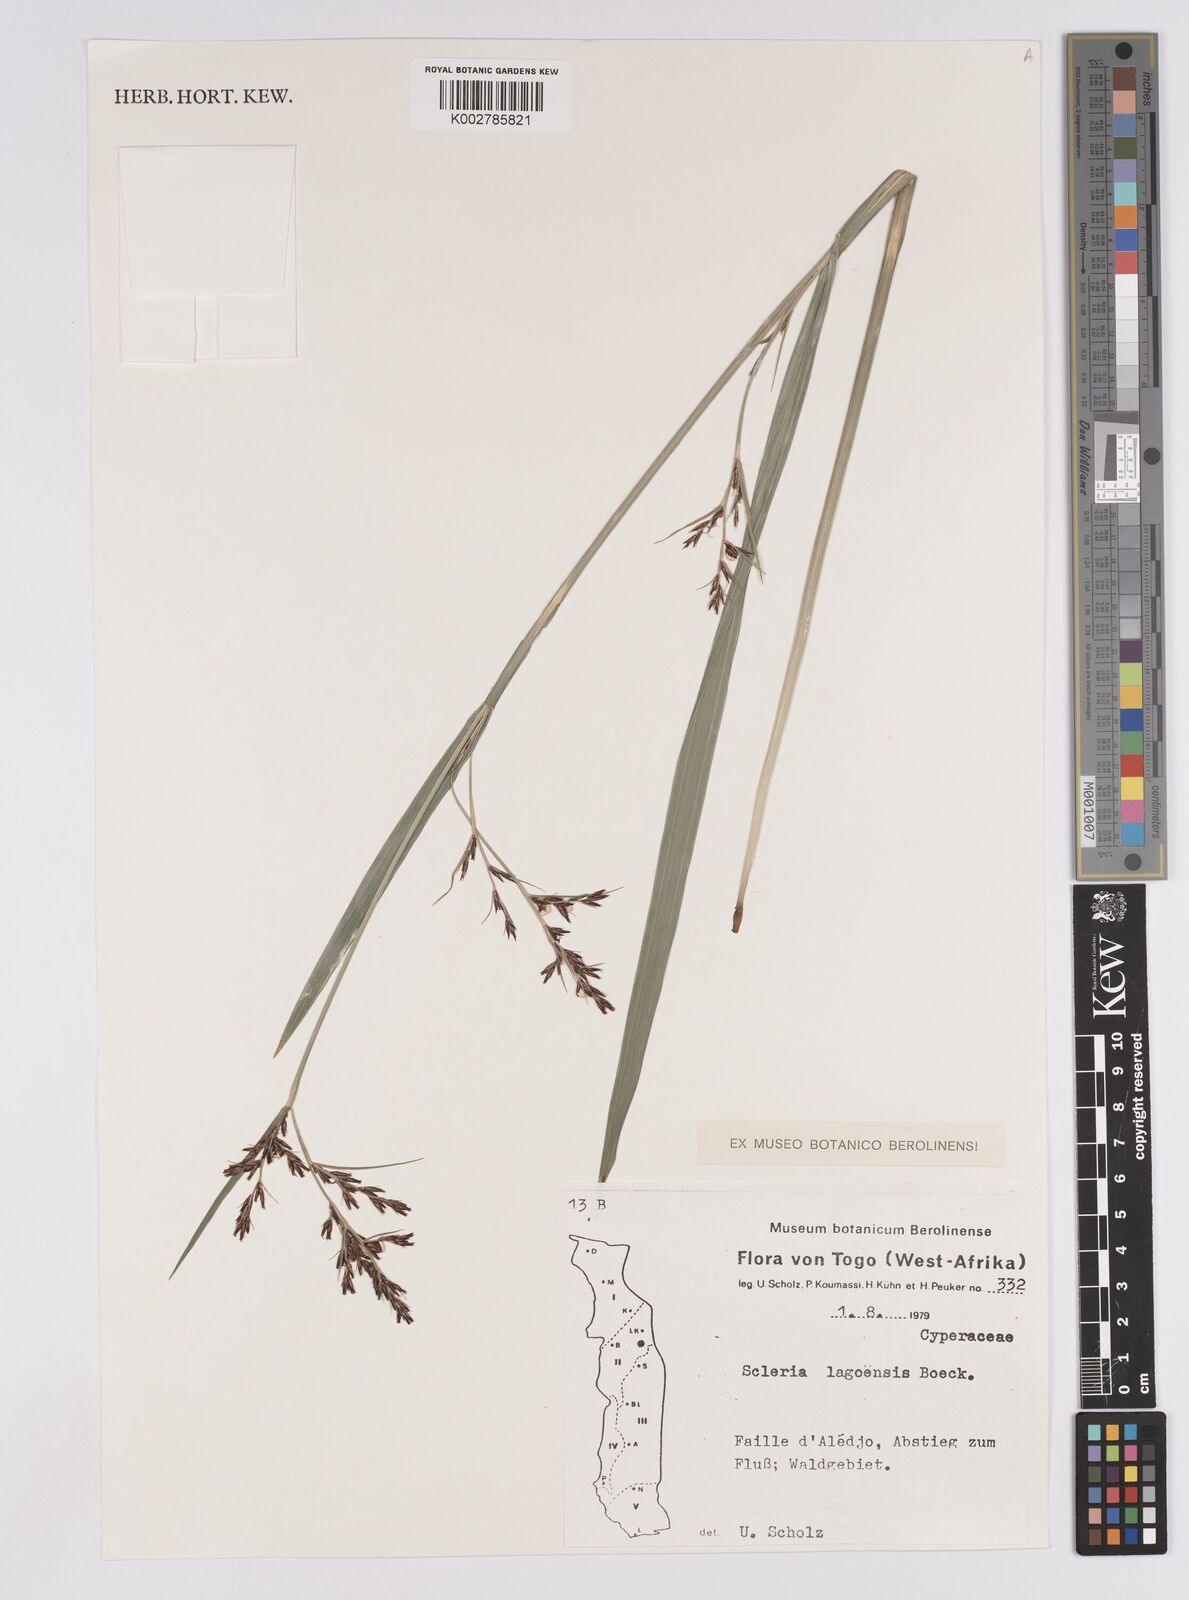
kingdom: Plantae
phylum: Tracheophyta
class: Liliopsida
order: Poales
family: Cyperaceae
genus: Scleria
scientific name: Scleria lagoensis
